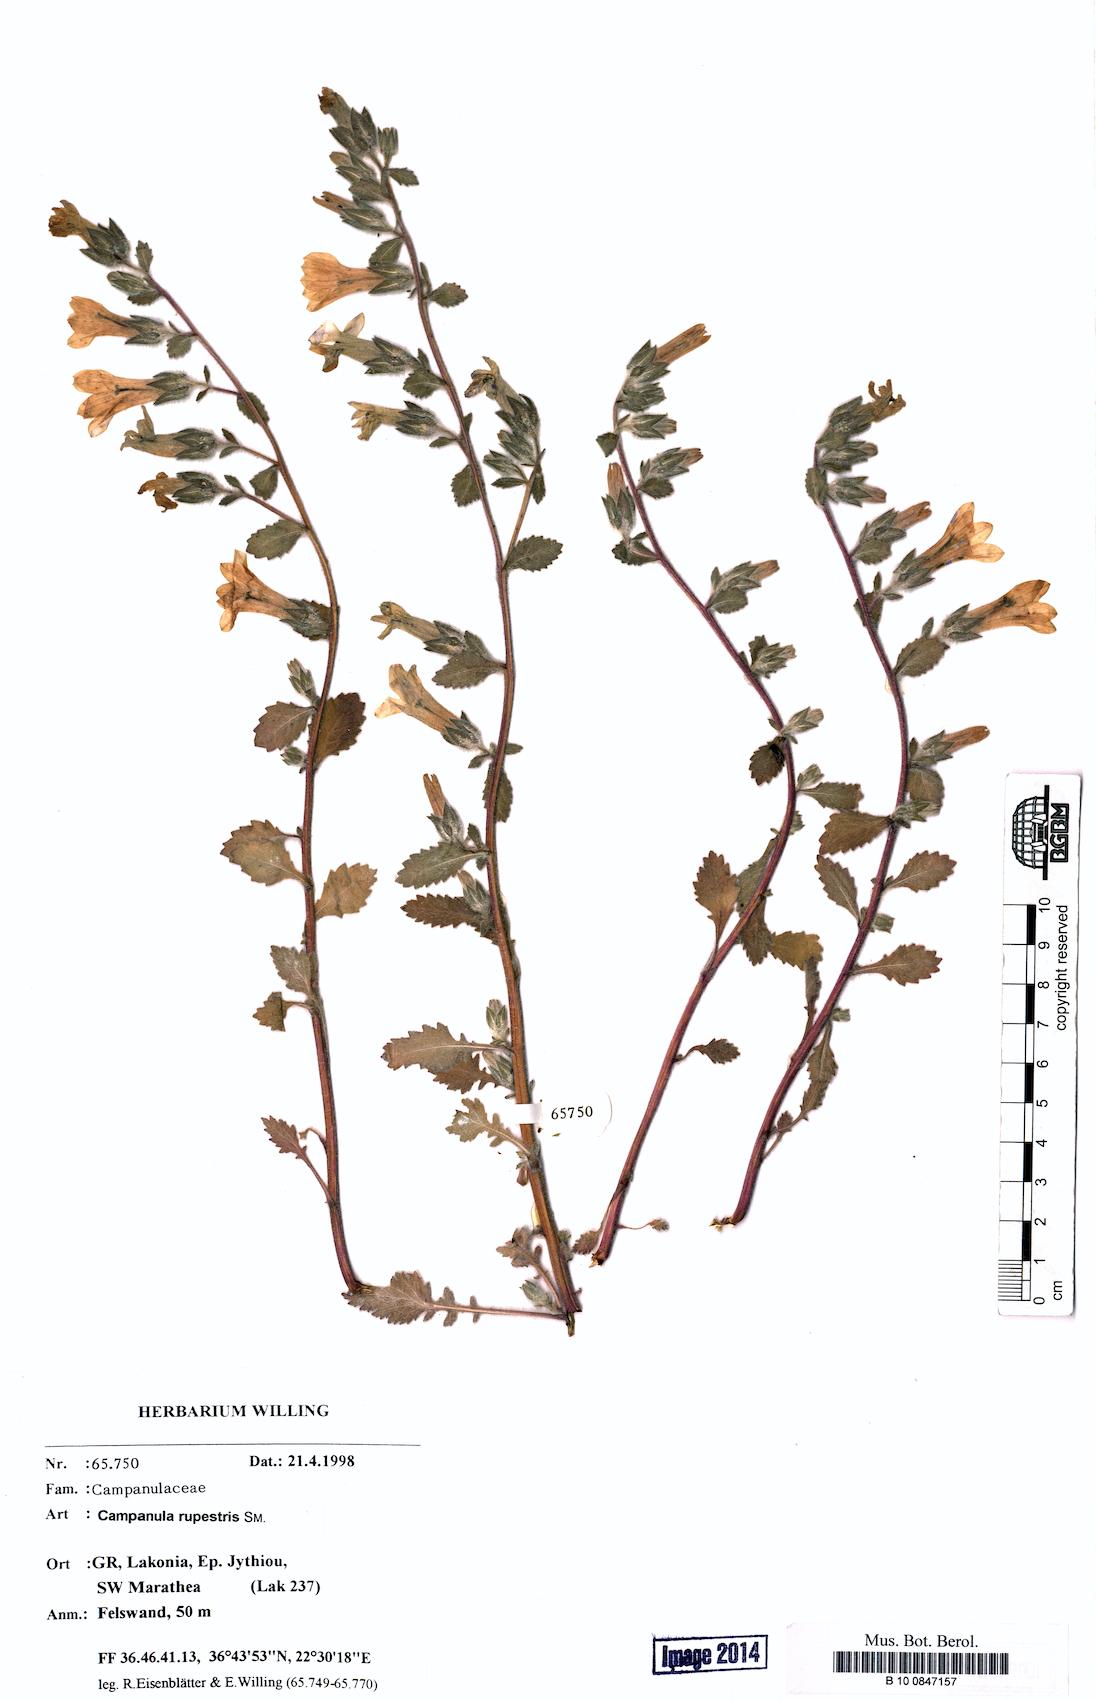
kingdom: Plantae
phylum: Tracheophyta
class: Magnoliopsida
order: Asterales
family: Campanulaceae
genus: Campanula
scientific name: Campanula rupestris
